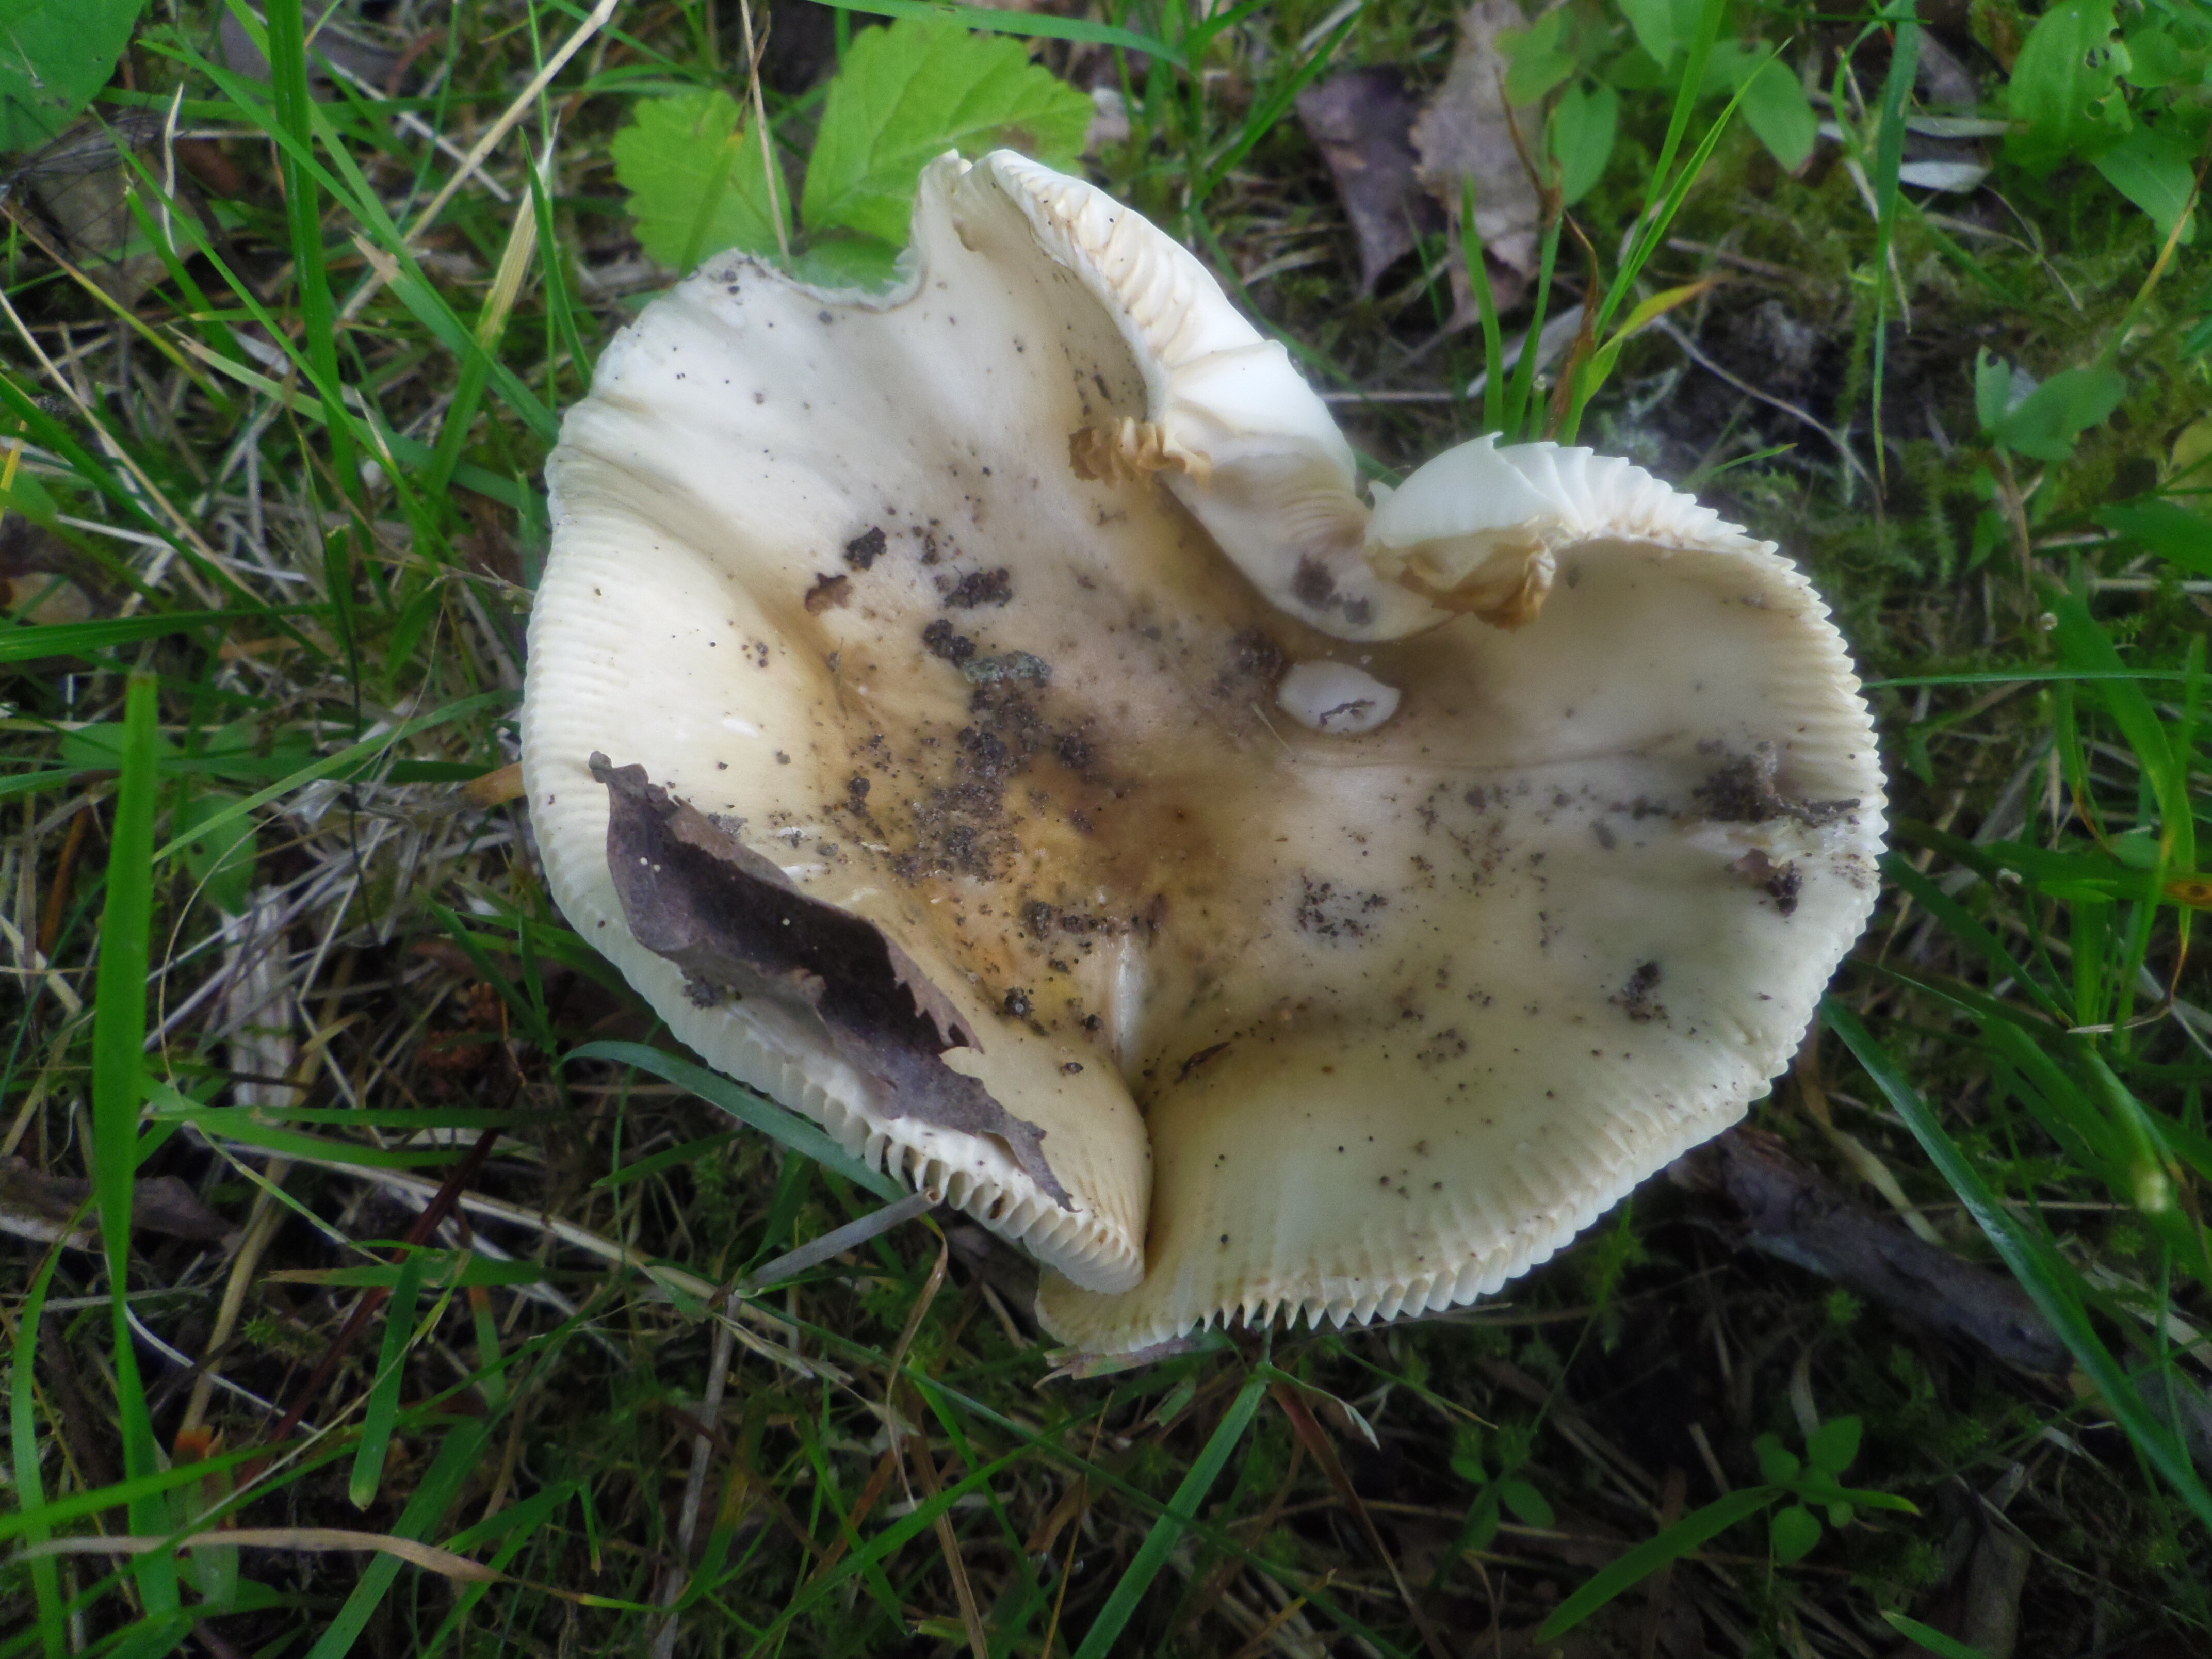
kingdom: Fungi
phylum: Basidiomycota
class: Agaricomycetes
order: Russulales
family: Russulaceae
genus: Russula
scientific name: Russula medullata
